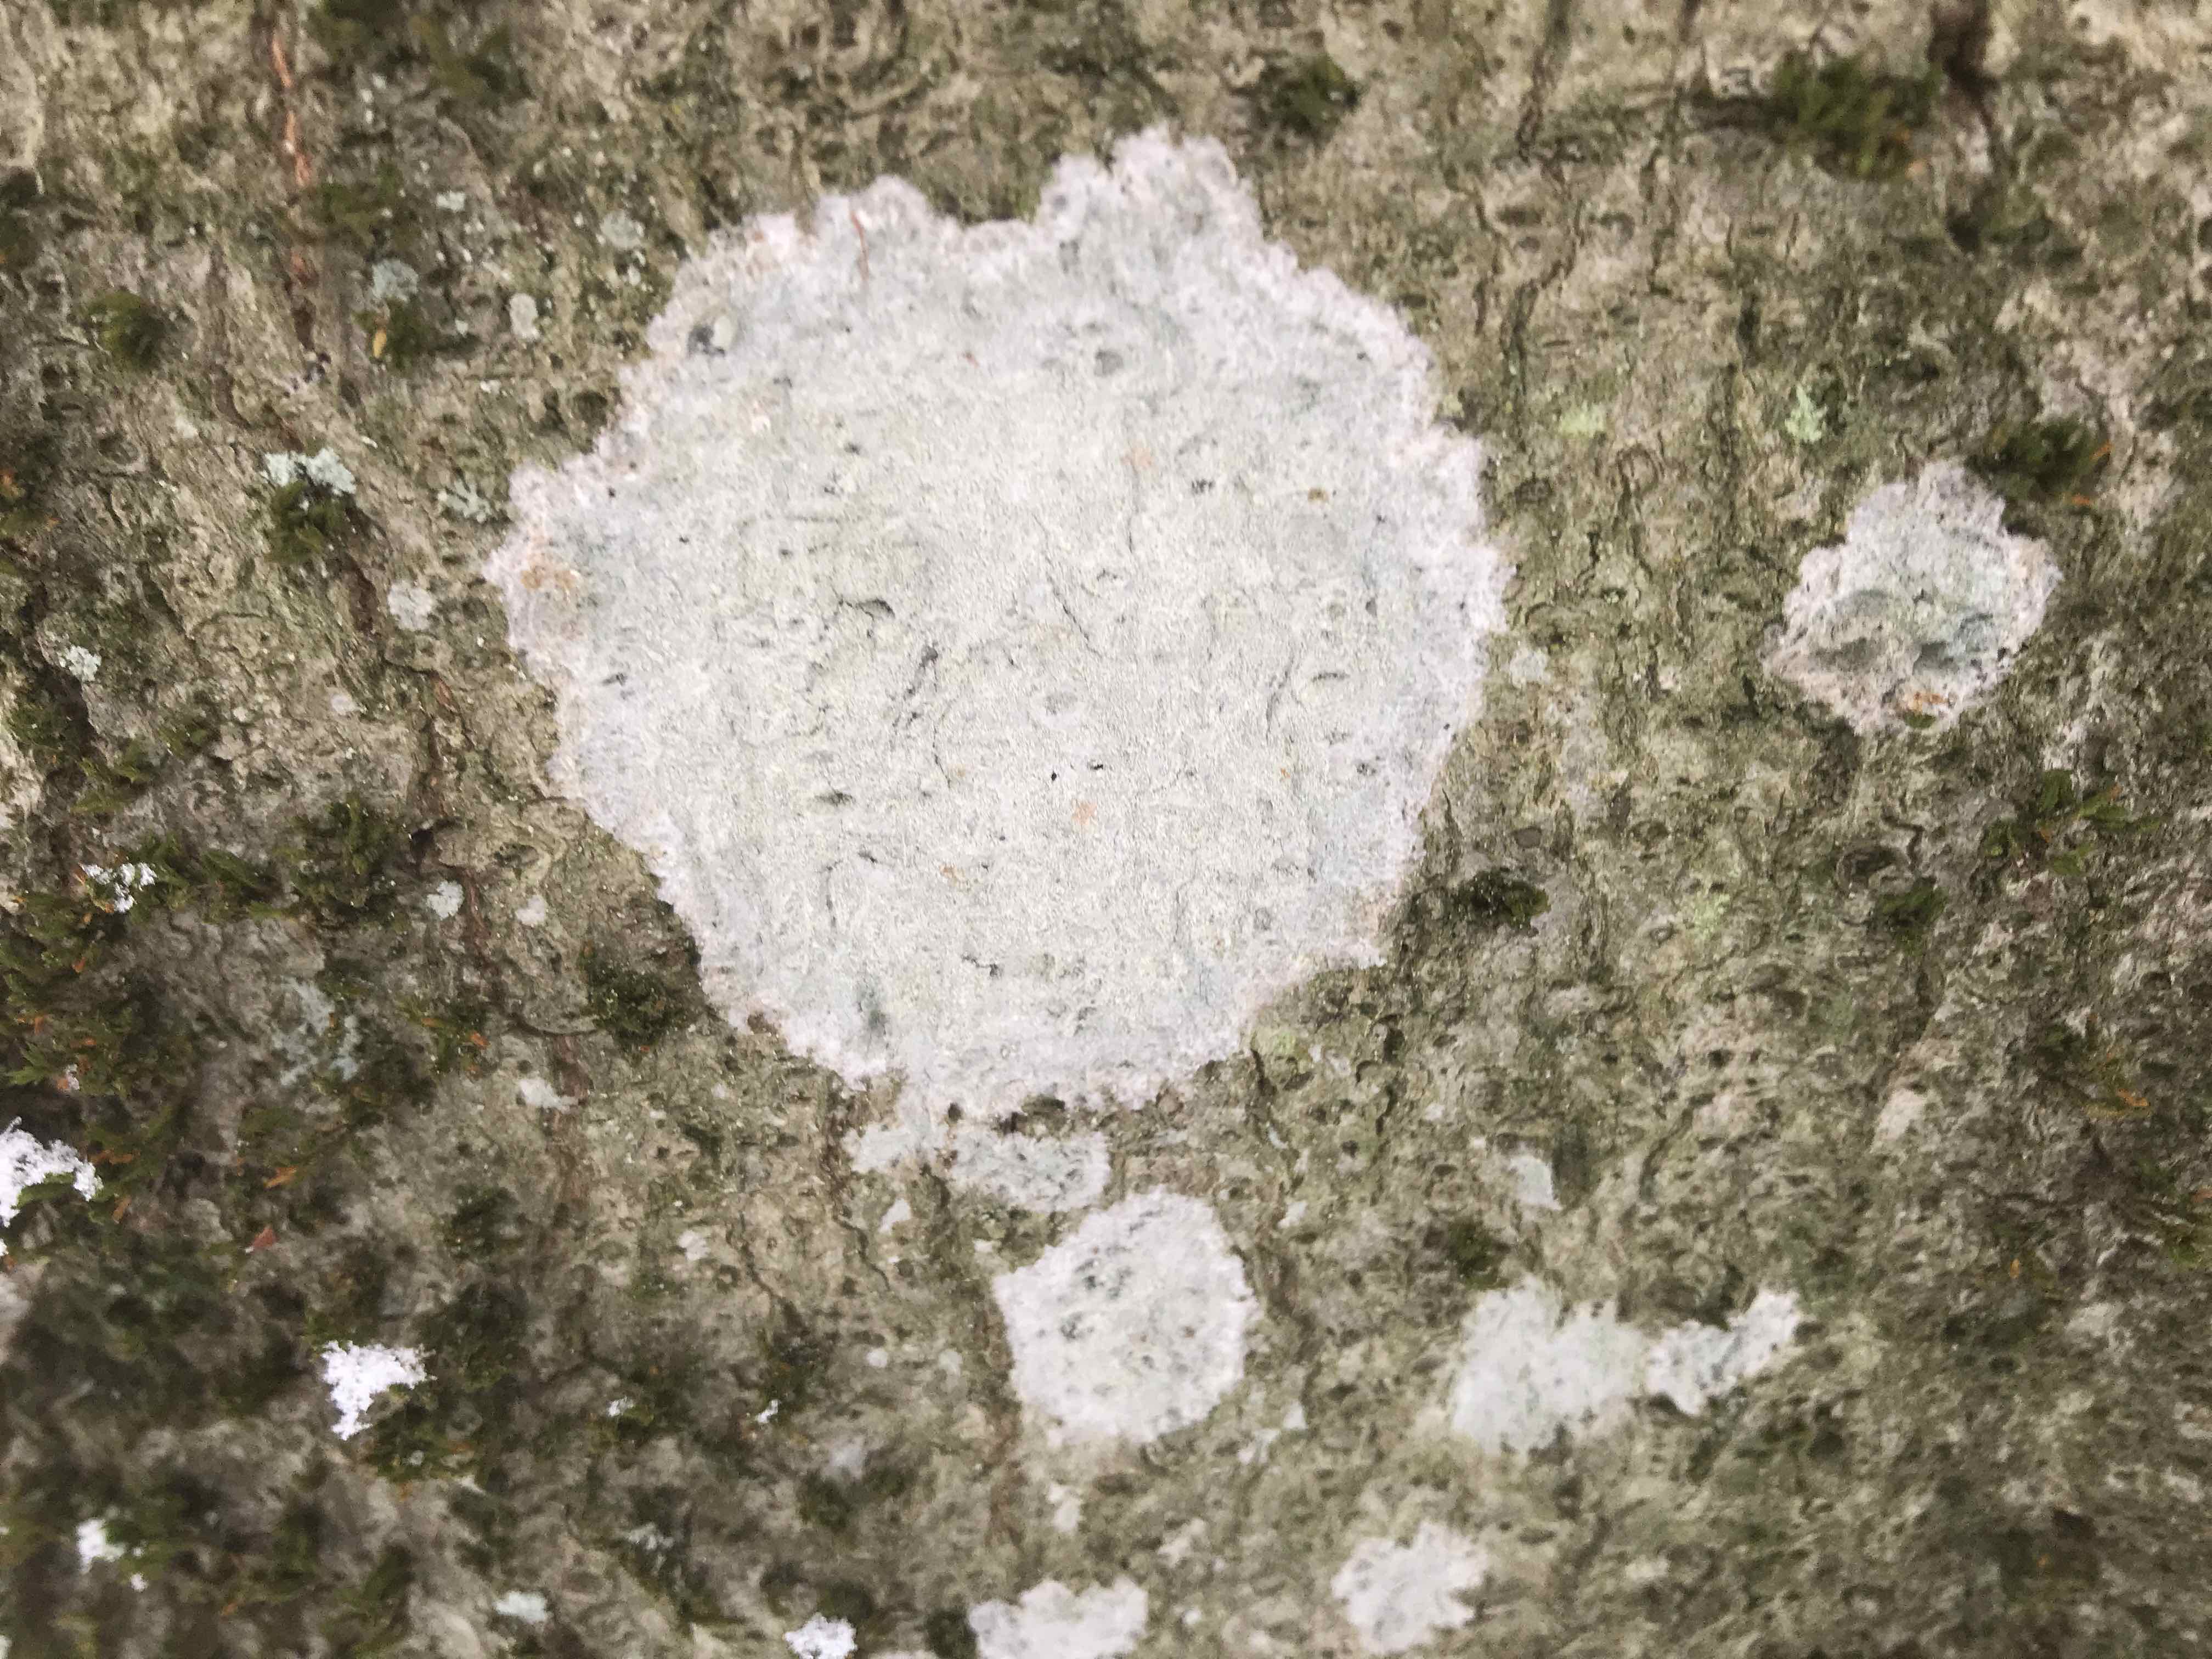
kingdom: Fungi
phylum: Ascomycota
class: Lecanoromycetes
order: Ostropales
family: Phlyctidaceae
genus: Phlyctis
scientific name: Phlyctis argena
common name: almindelig sølvlav
